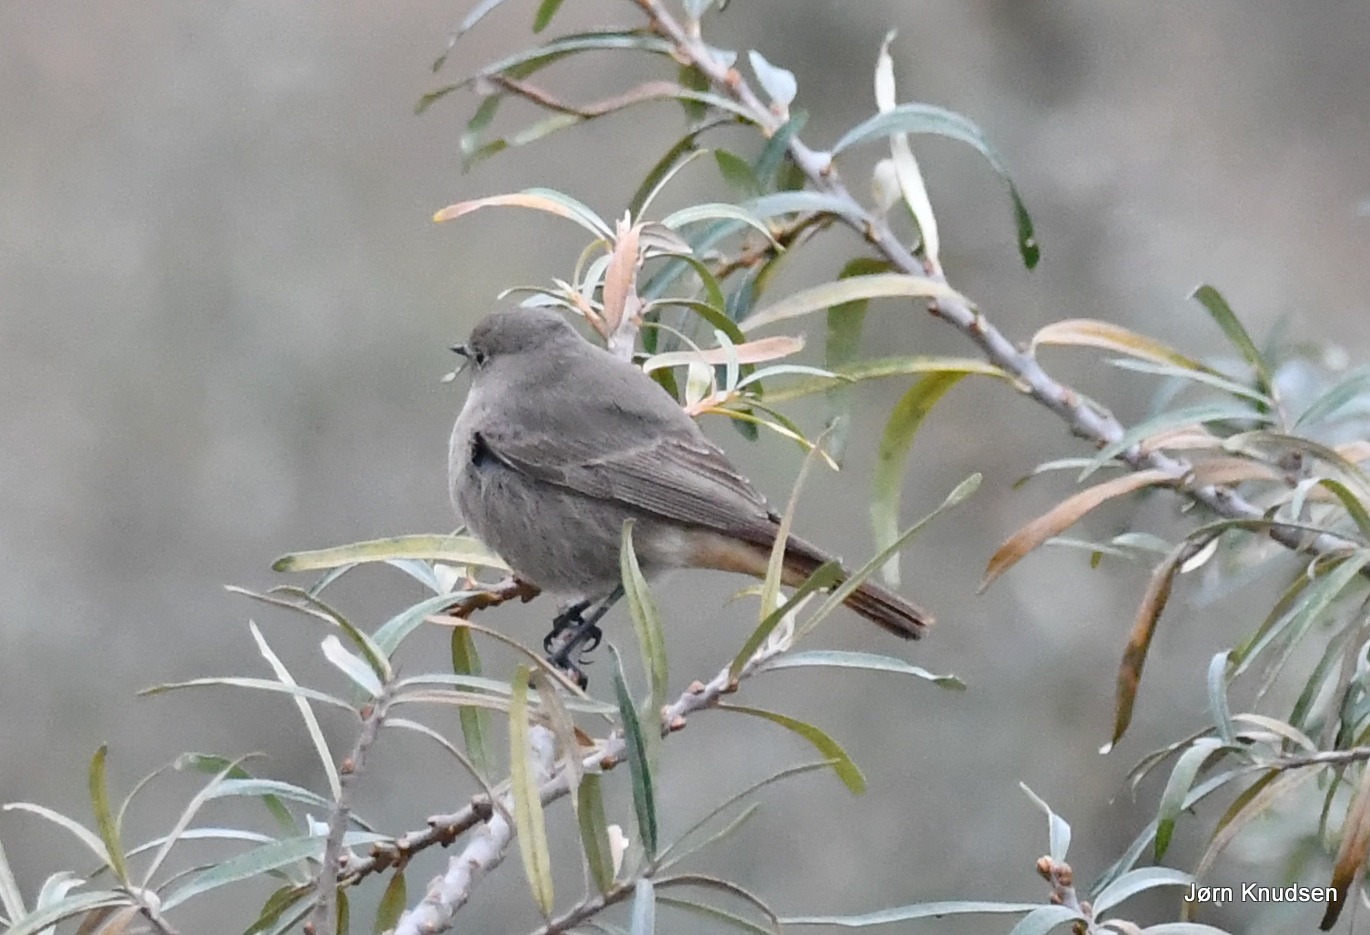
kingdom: Animalia
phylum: Chordata
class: Aves
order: Passeriformes
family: Muscicapidae
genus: Phoenicurus
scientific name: Phoenicurus ochruros
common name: Husrødstjert
